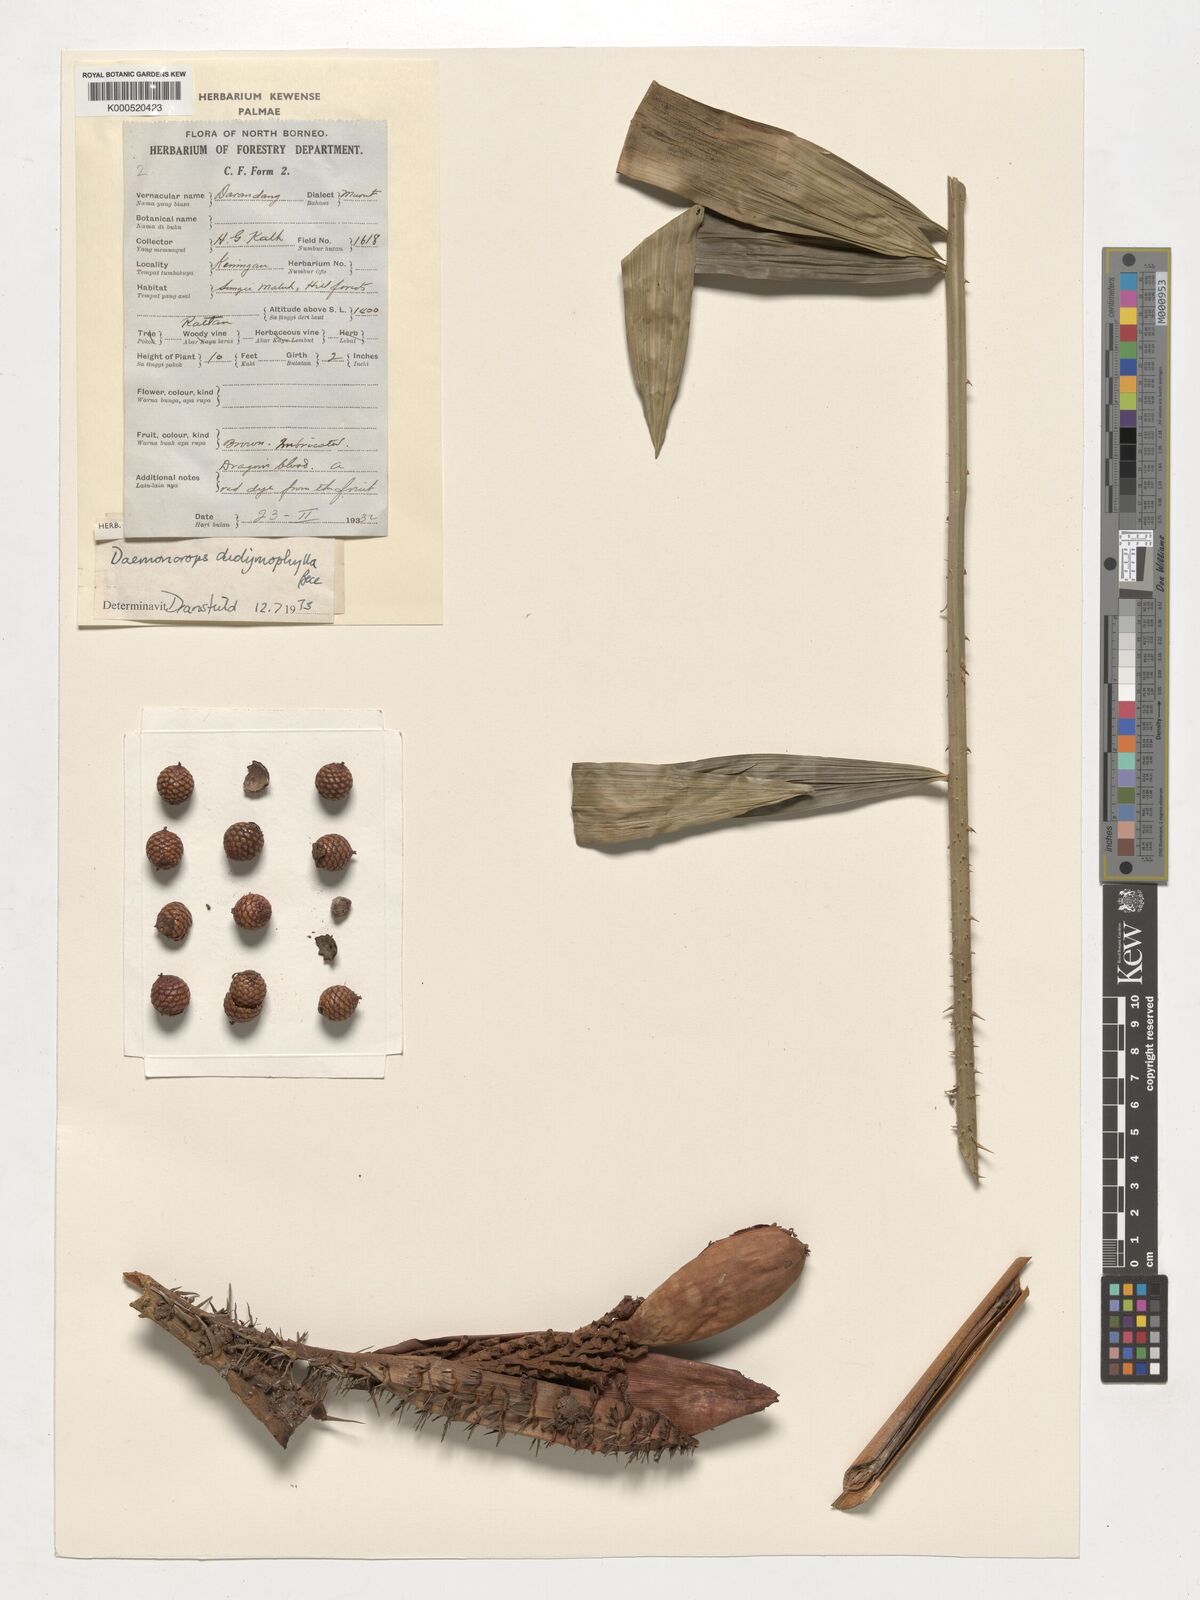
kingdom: Plantae
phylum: Tracheophyta
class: Liliopsida
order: Arecales
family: Arecaceae
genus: Calamus
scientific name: Calamus gracilipes
